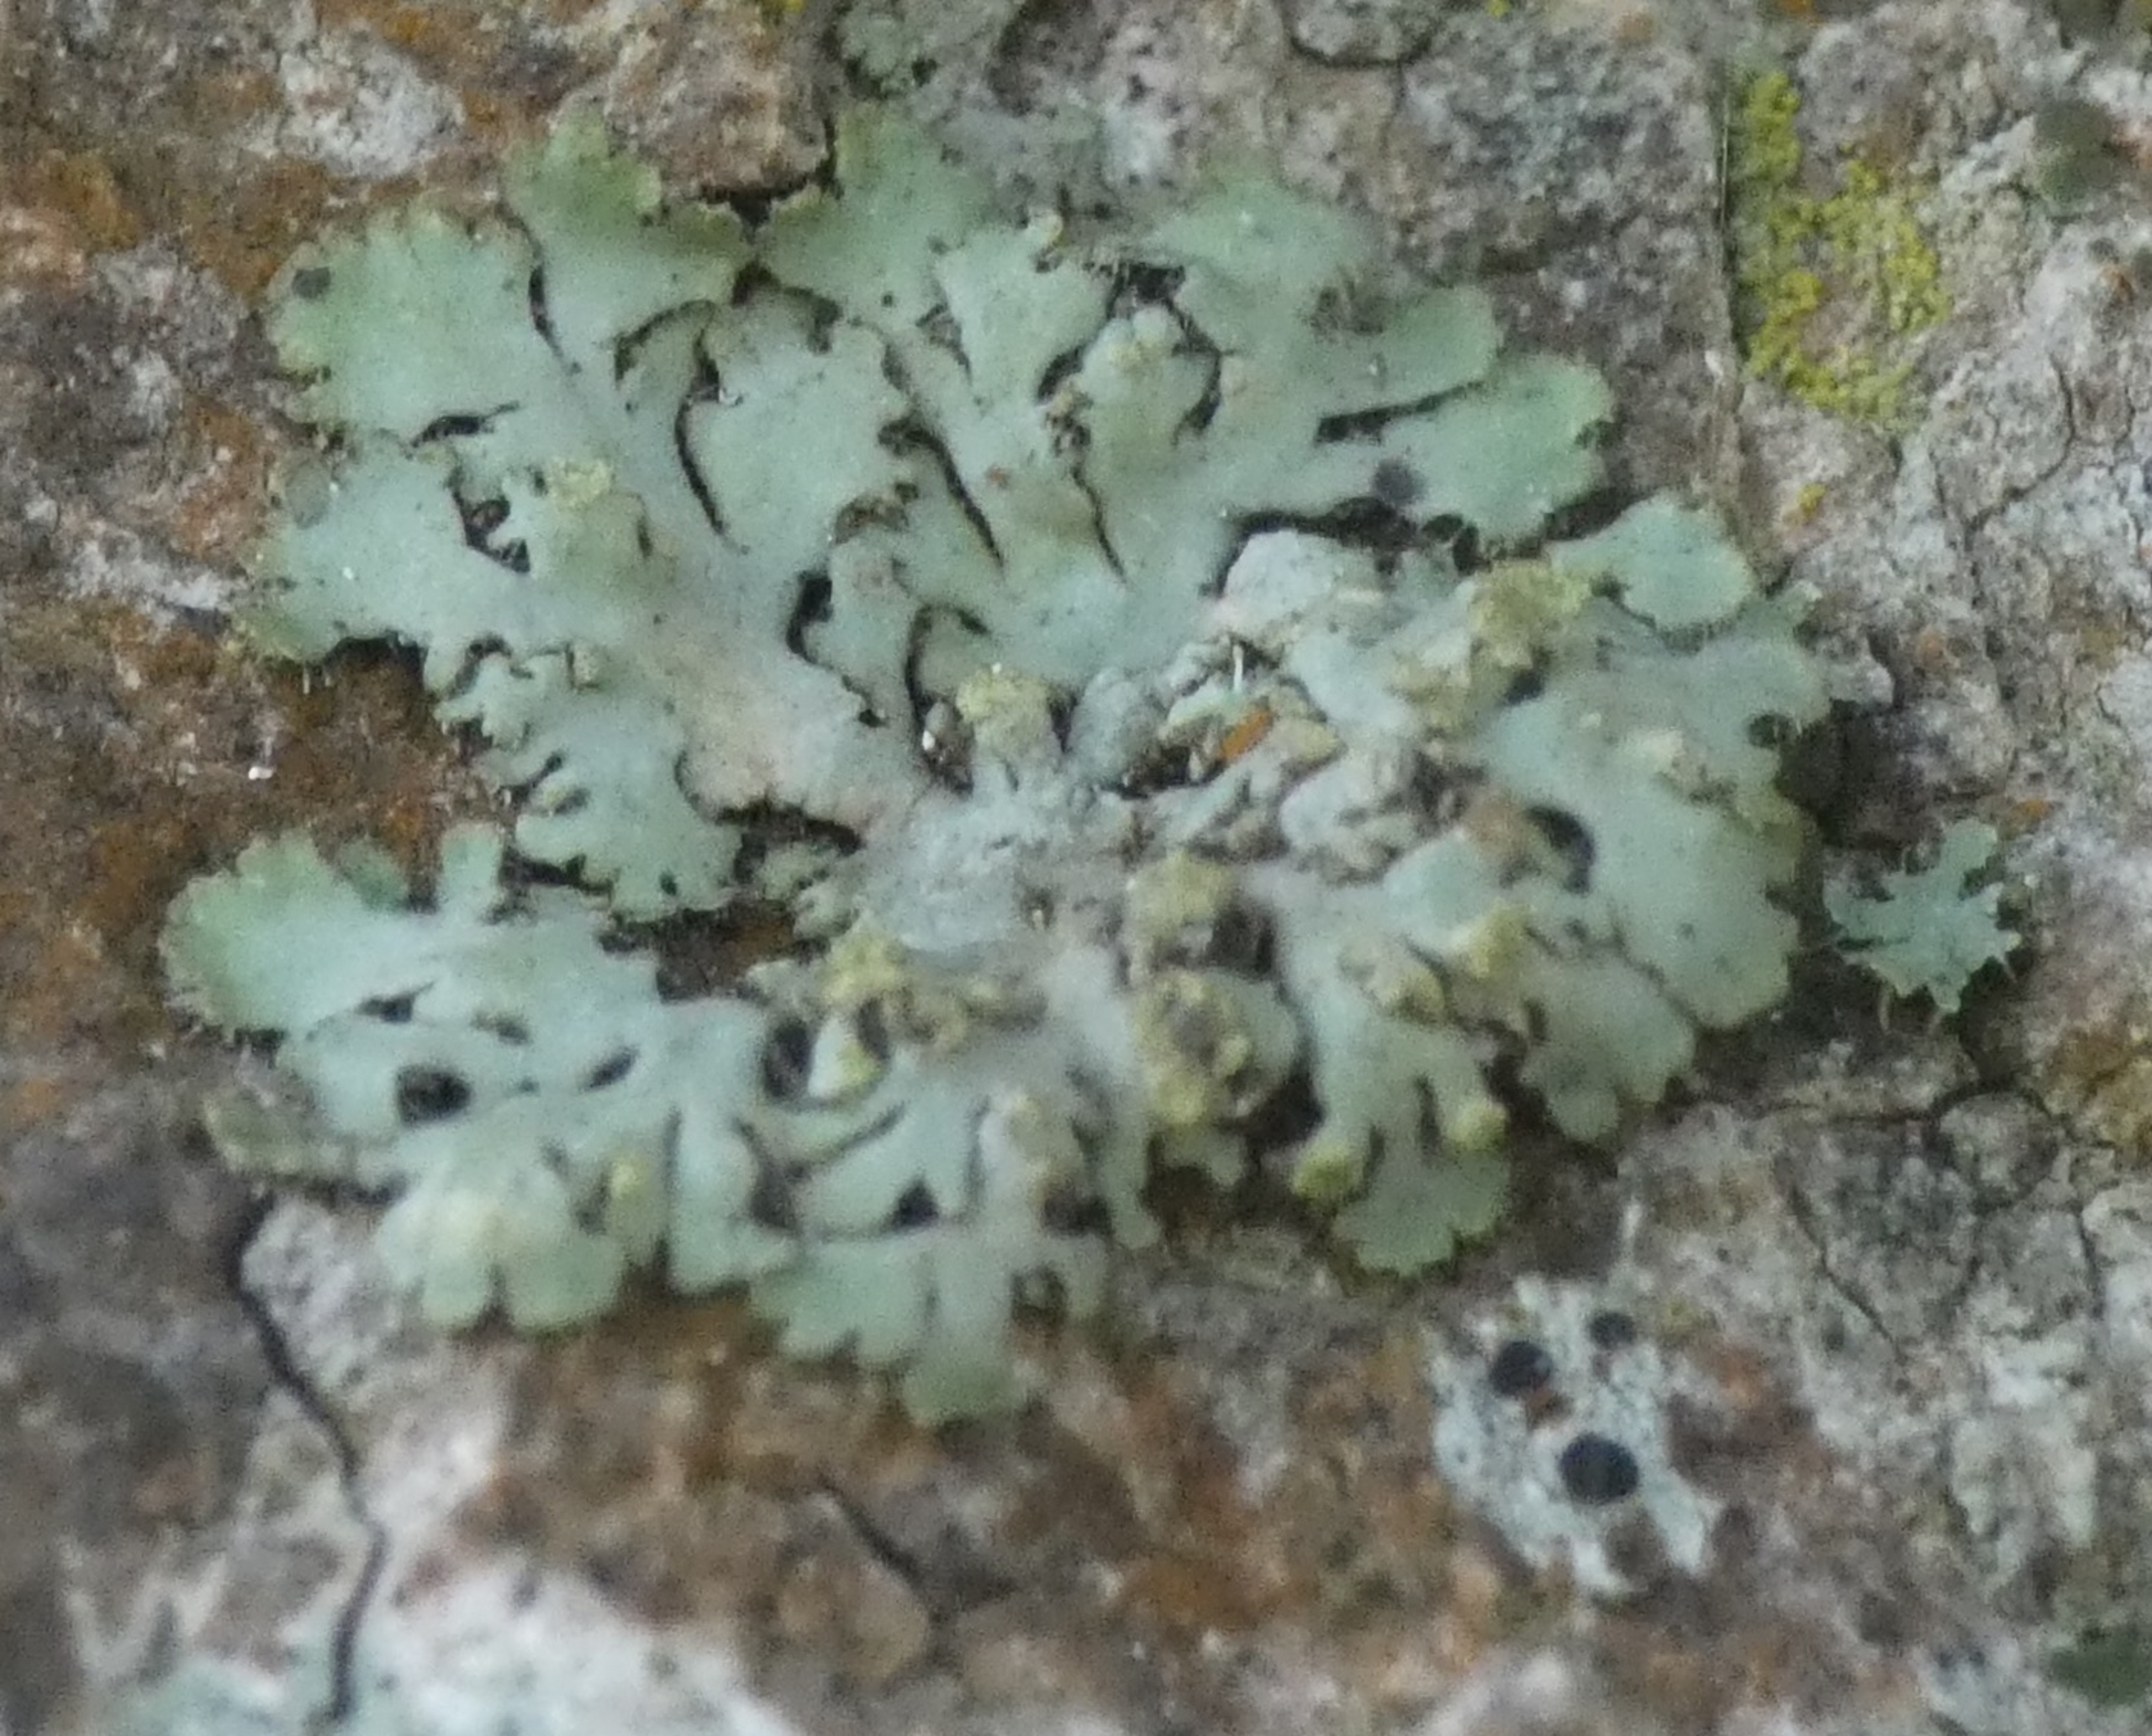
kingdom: Fungi
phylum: Ascomycota
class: Lecanoromycetes
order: Caliciales
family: Physciaceae
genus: Phaeophyscia
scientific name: Phaeophyscia orbicularis
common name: Grågrøn rosetlav
